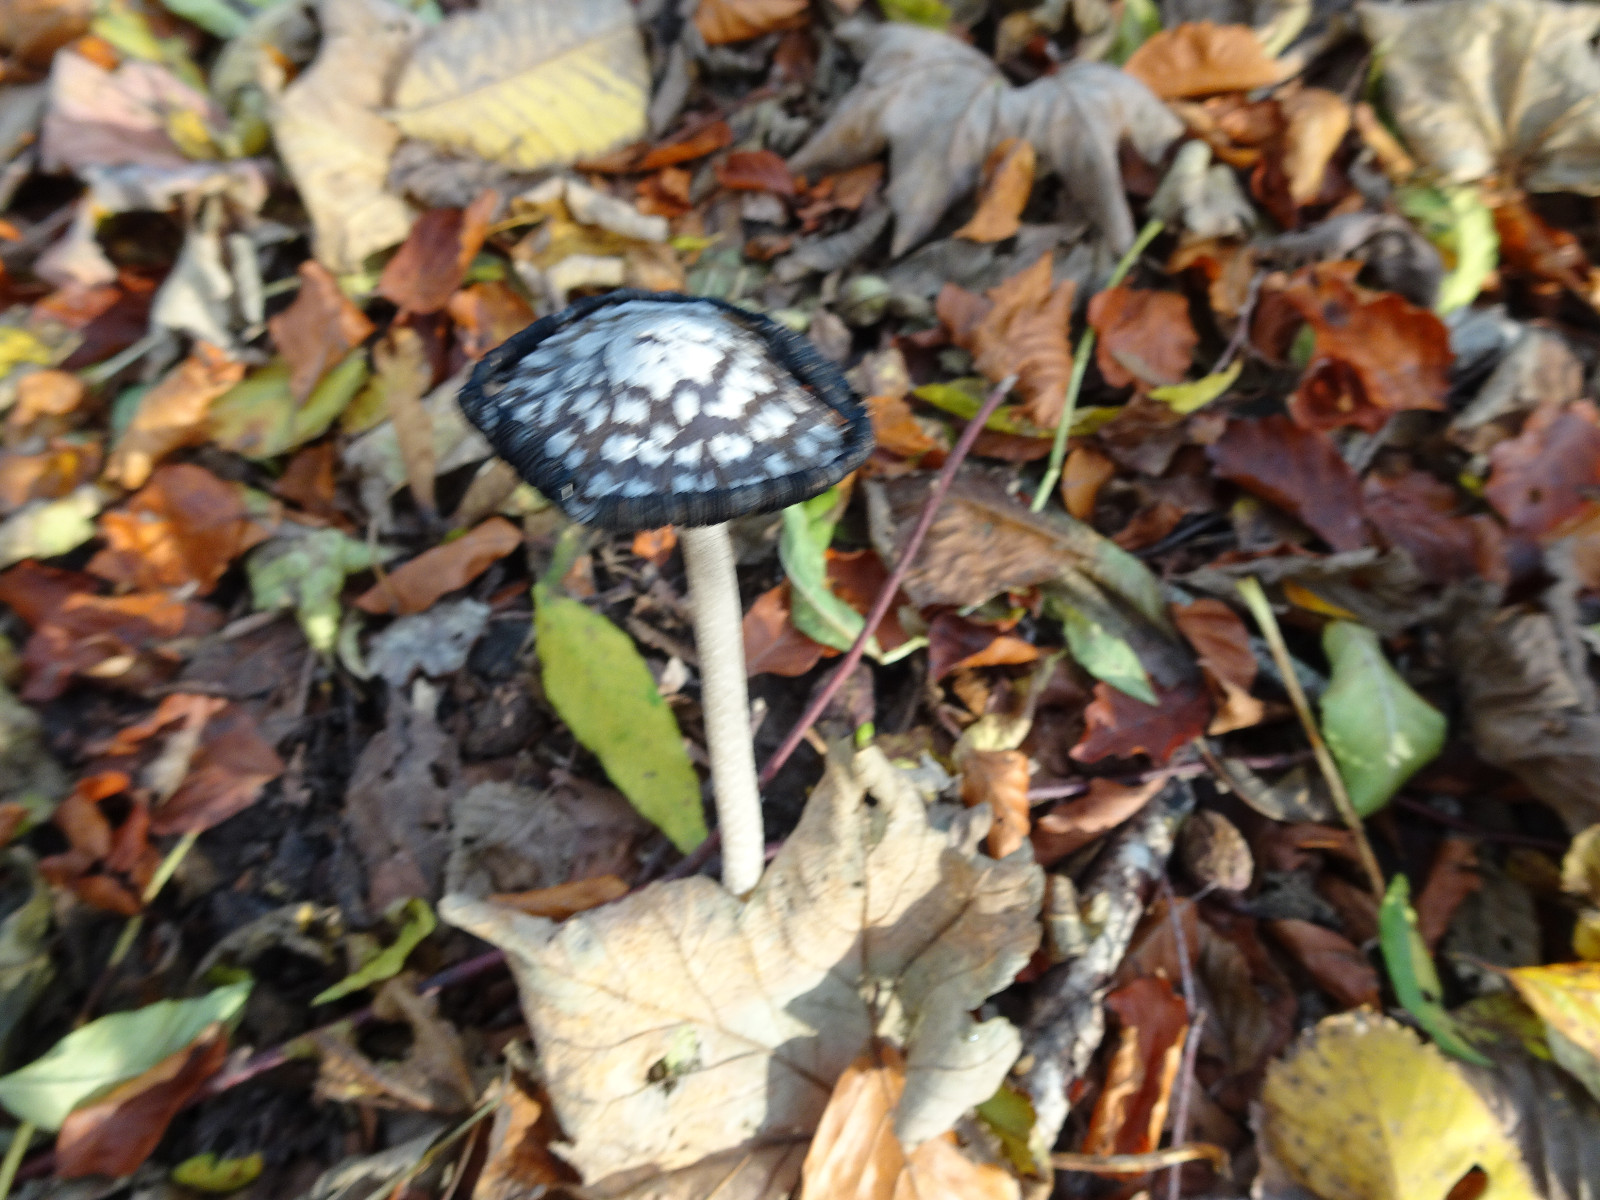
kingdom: Fungi
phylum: Basidiomycota
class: Agaricomycetes
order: Agaricales
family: Psathyrellaceae
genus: Coprinopsis
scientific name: Coprinopsis picacea
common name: skade-blækhat
